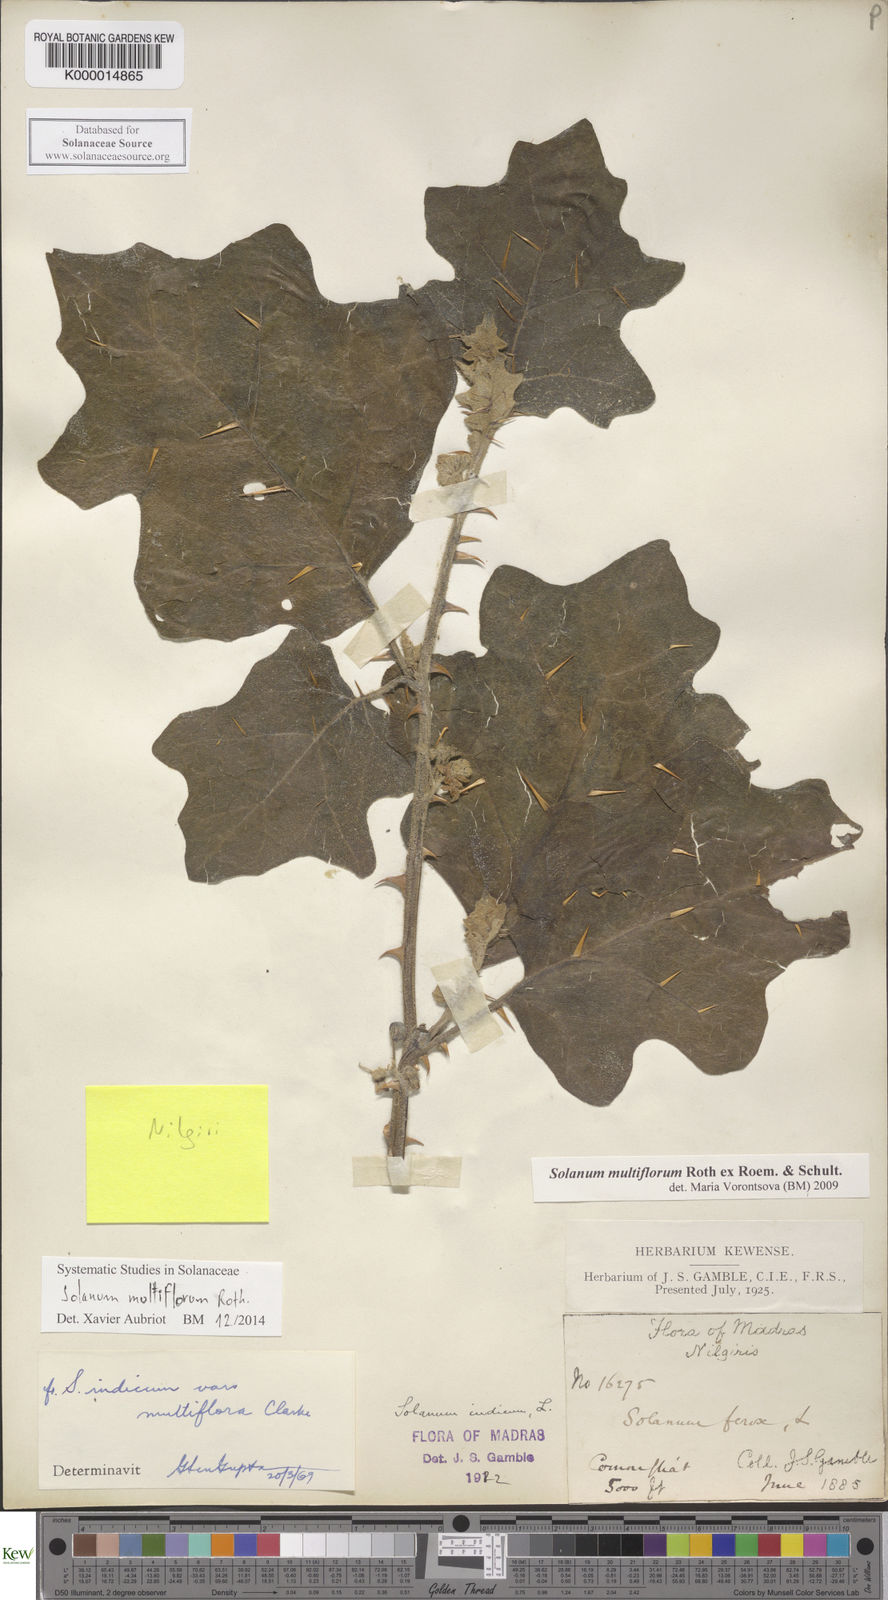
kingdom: Plantae
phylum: Tracheophyta
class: Magnoliopsida
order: Solanales
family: Solanaceae
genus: Solanum
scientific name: Solanum multiflorum
